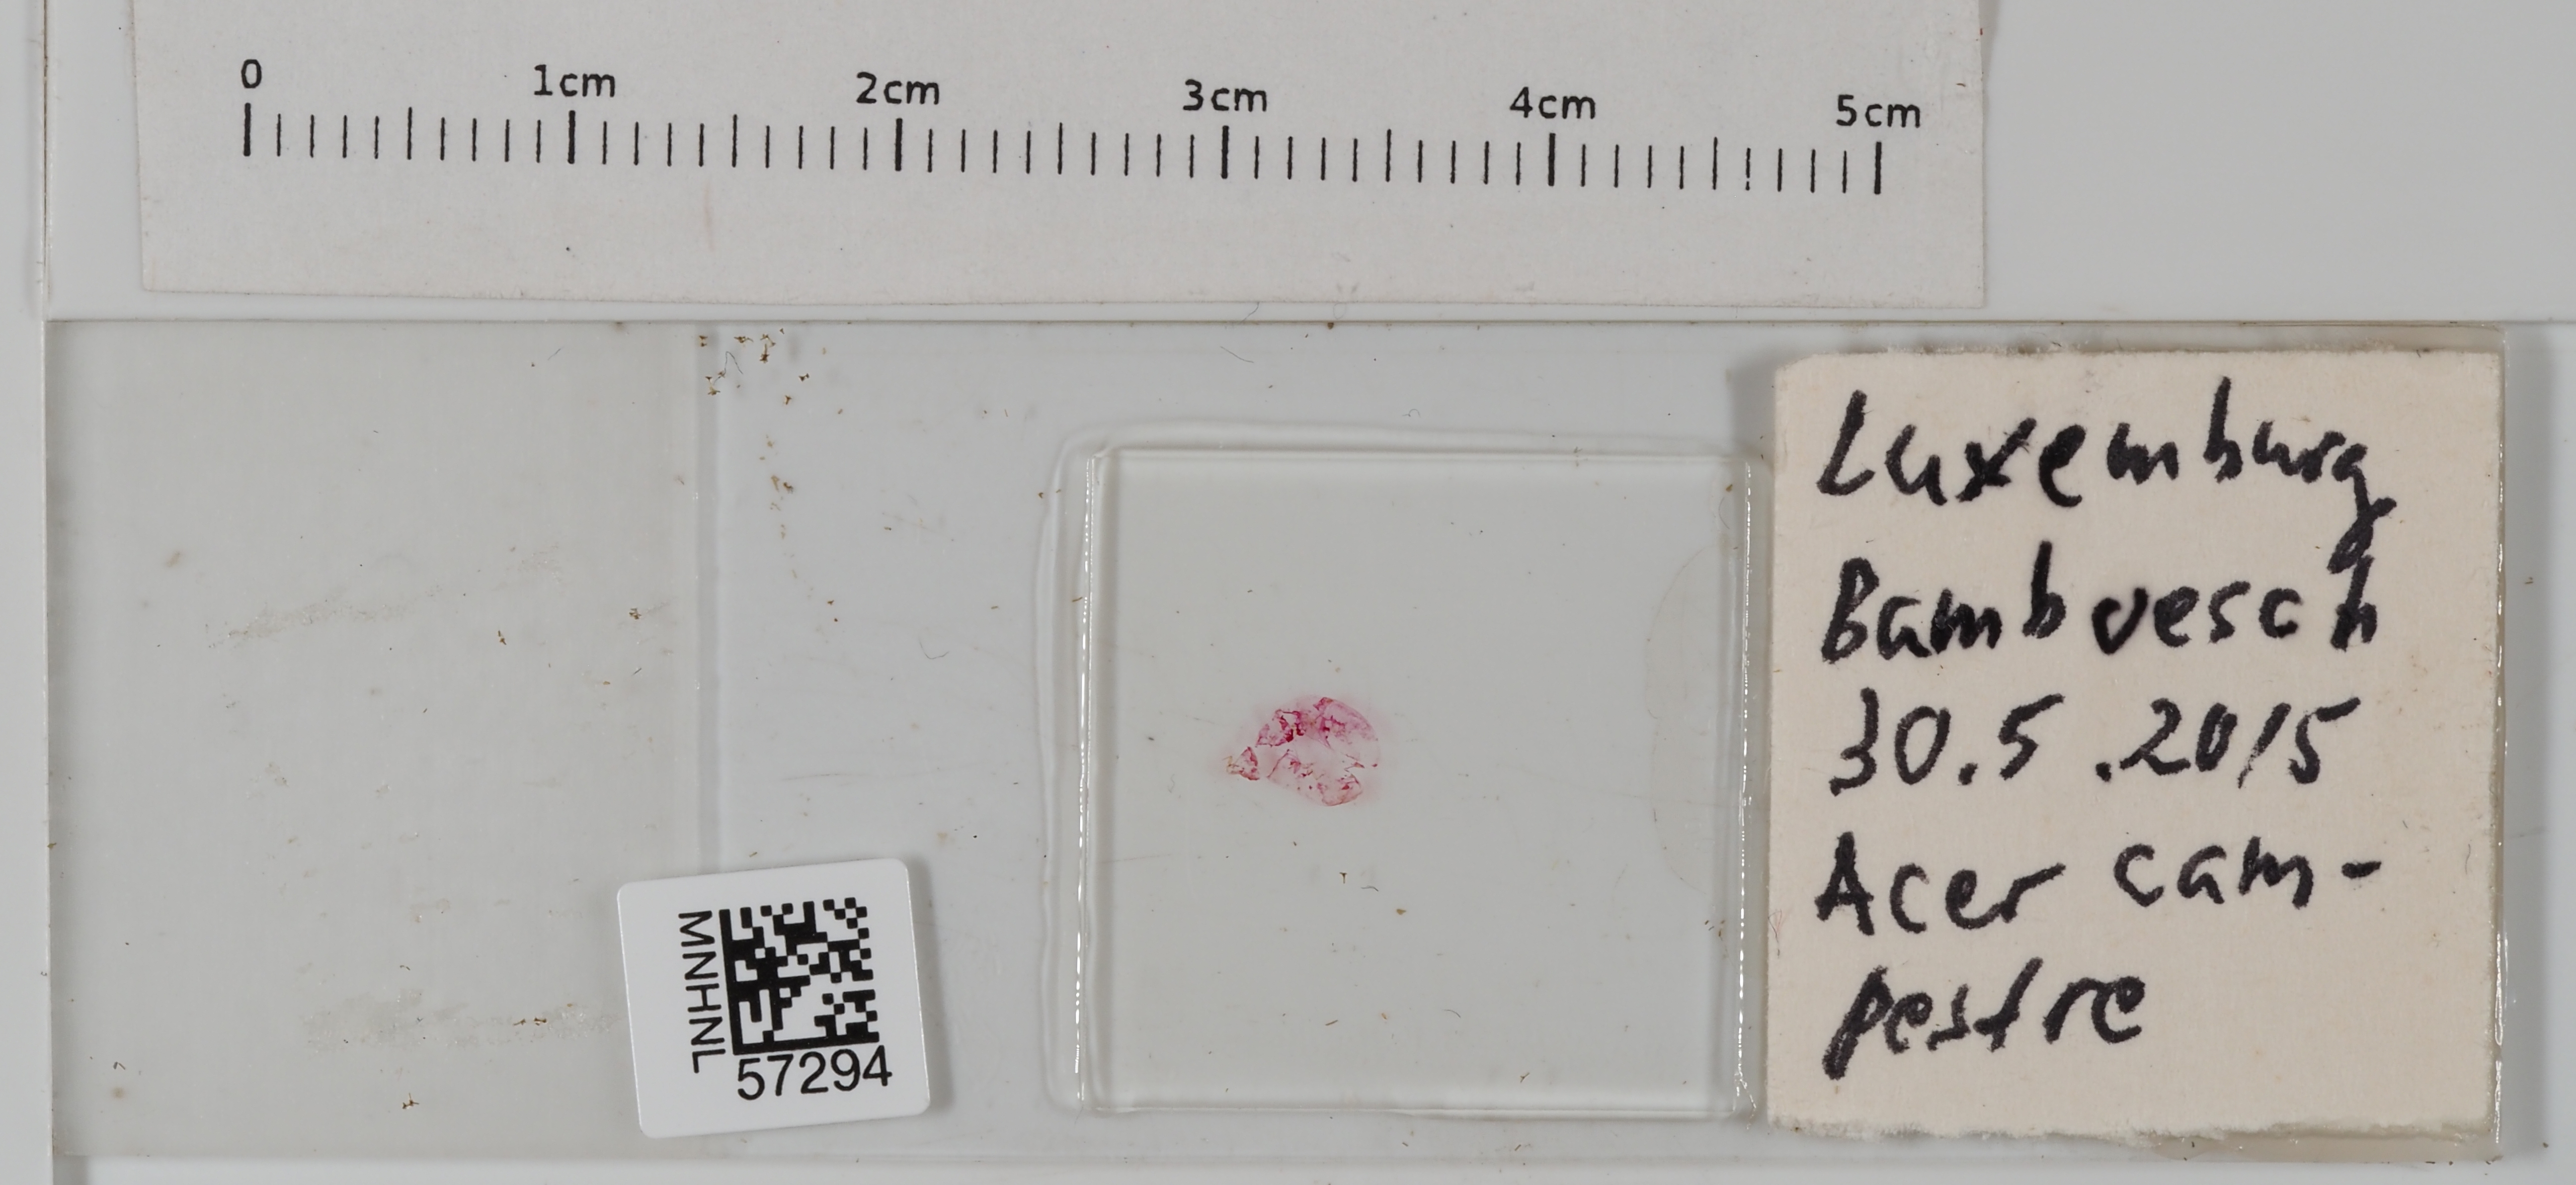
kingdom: Animalia
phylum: Arthropoda
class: Insecta
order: Hemiptera
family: Coccidae
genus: Parthenolecanium
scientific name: Parthenolecanium persicae
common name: Peach scale
